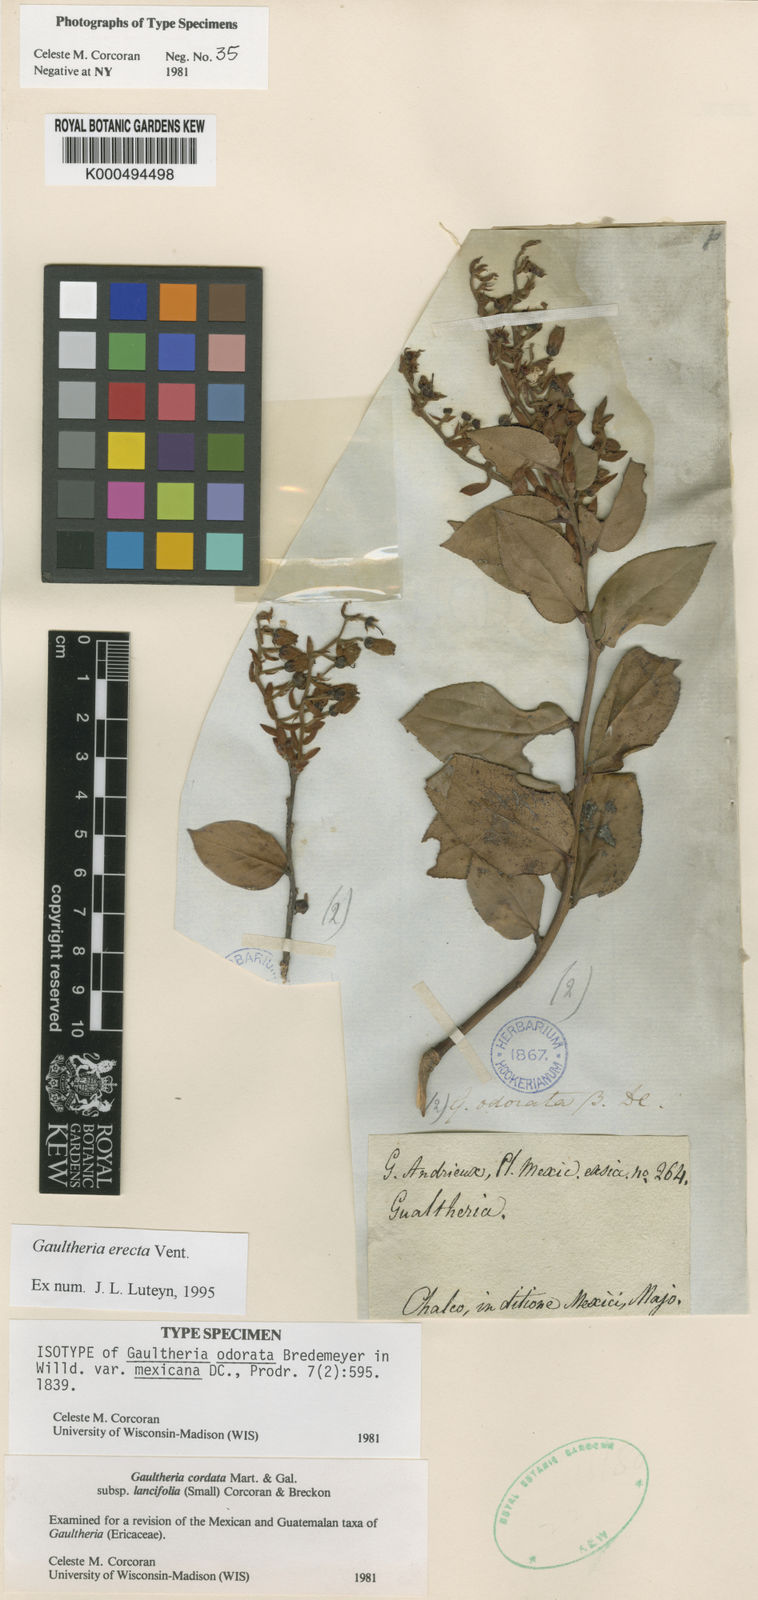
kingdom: Plantae
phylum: Tracheophyta
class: Magnoliopsida
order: Ericales
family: Ericaceae
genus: Gaultheria
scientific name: Gaultheria erecta
